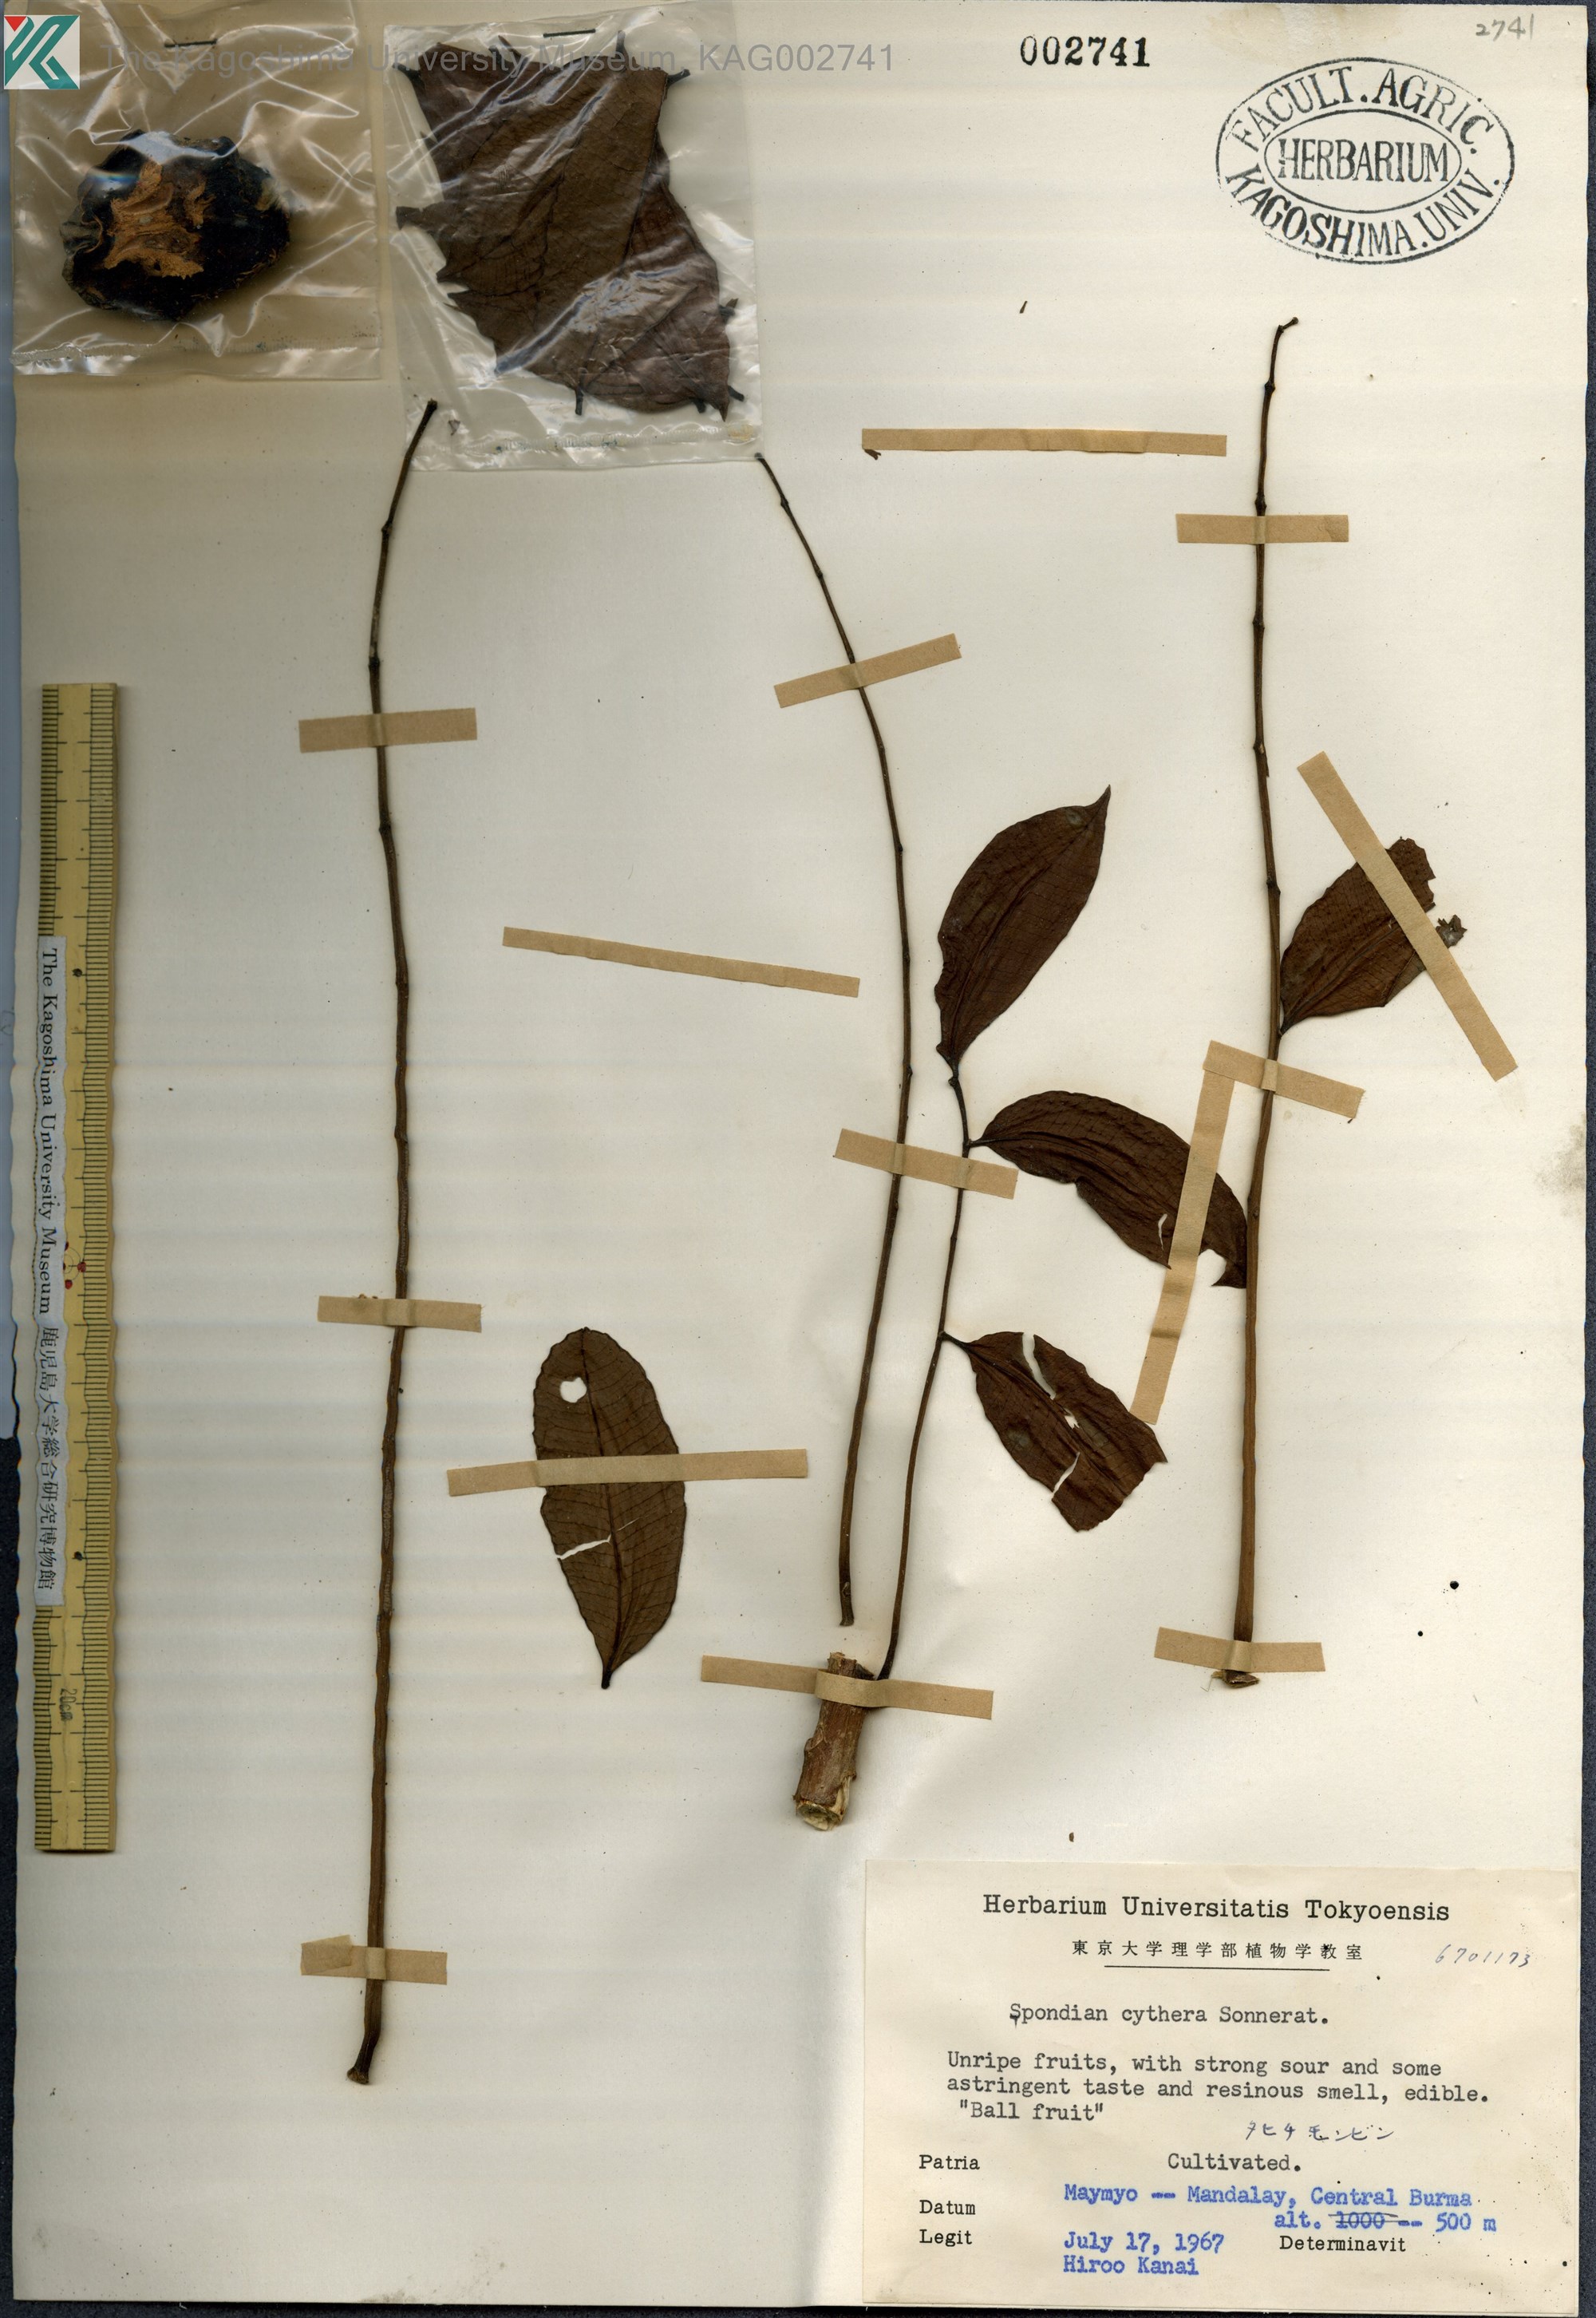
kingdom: Plantae
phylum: Tracheophyta
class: Magnoliopsida
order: Sapindales
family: Anacardiaceae
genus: Spondias
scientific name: Spondias dulcis
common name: Ambarella
